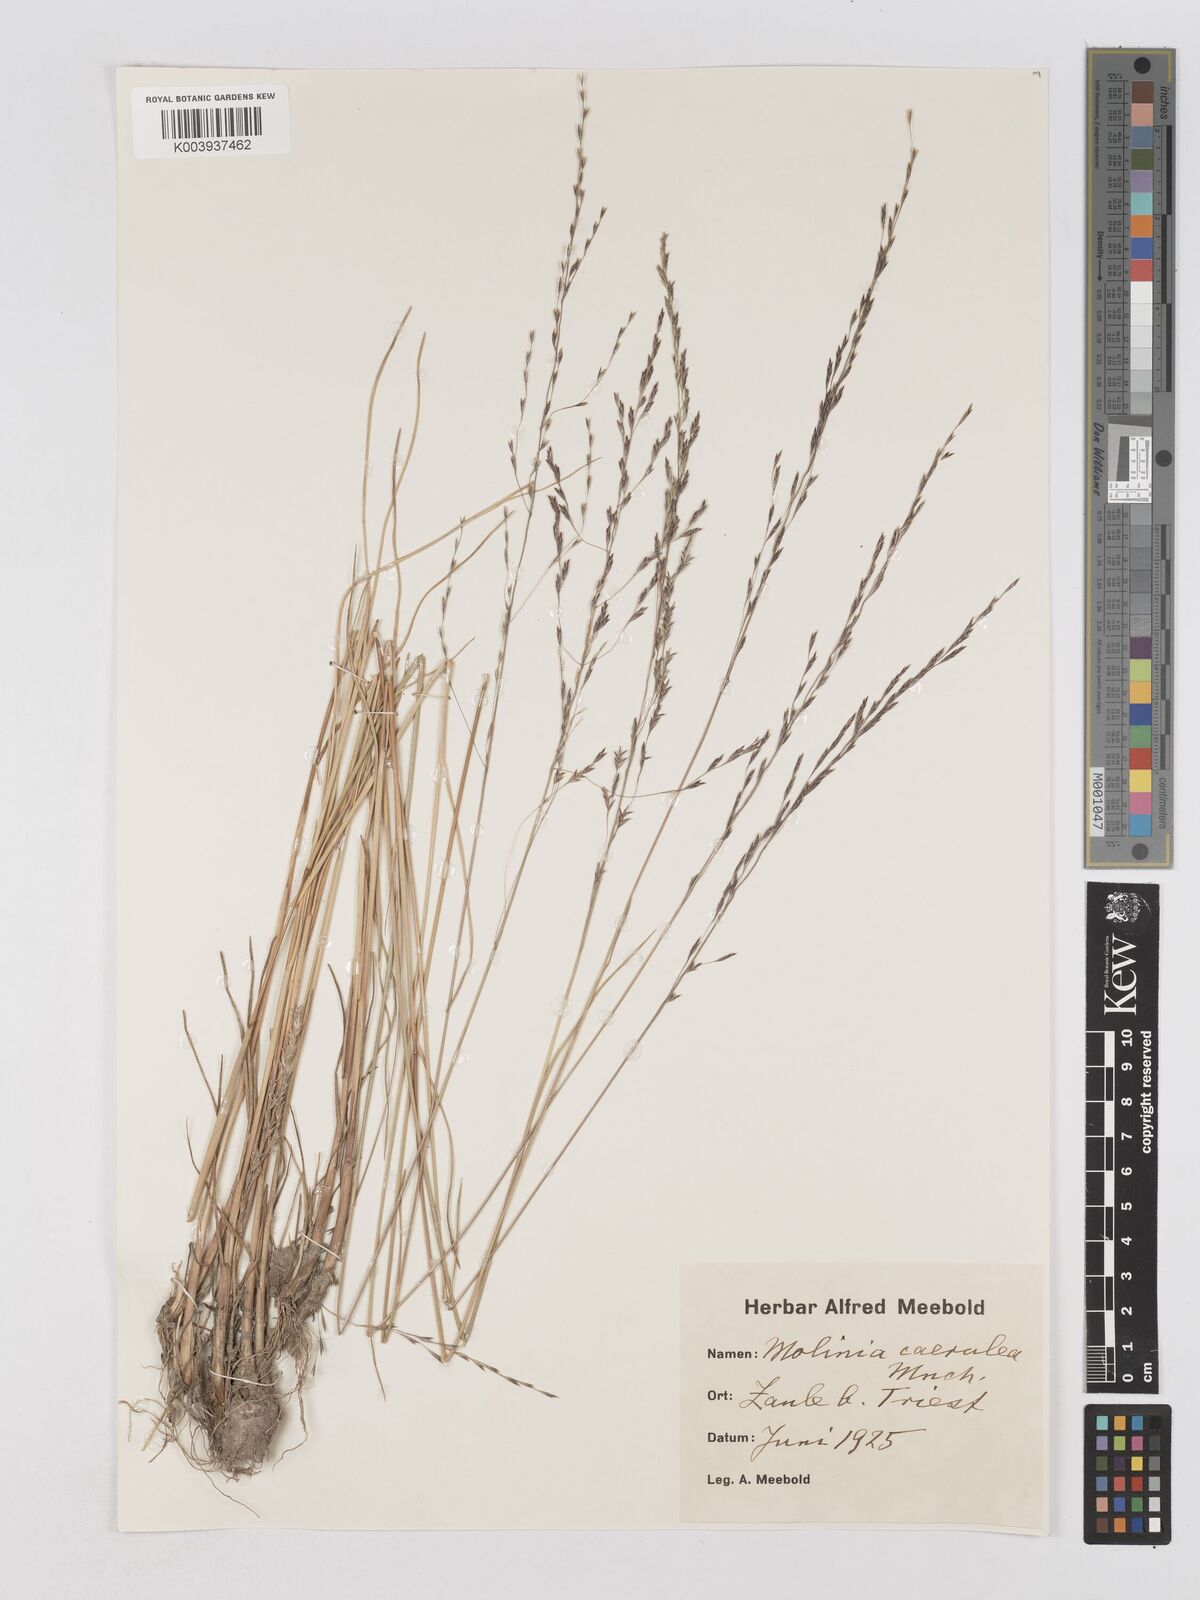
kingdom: Plantae
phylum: Tracheophyta
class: Liliopsida
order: Poales
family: Poaceae
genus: Molinia
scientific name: Molinia caerulea
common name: Purple moor-grass
